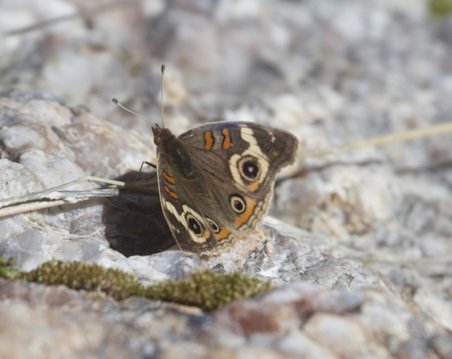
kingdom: Animalia
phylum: Arthropoda
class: Insecta
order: Lepidoptera
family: Nymphalidae
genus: Junonia
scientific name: Junonia grisea
